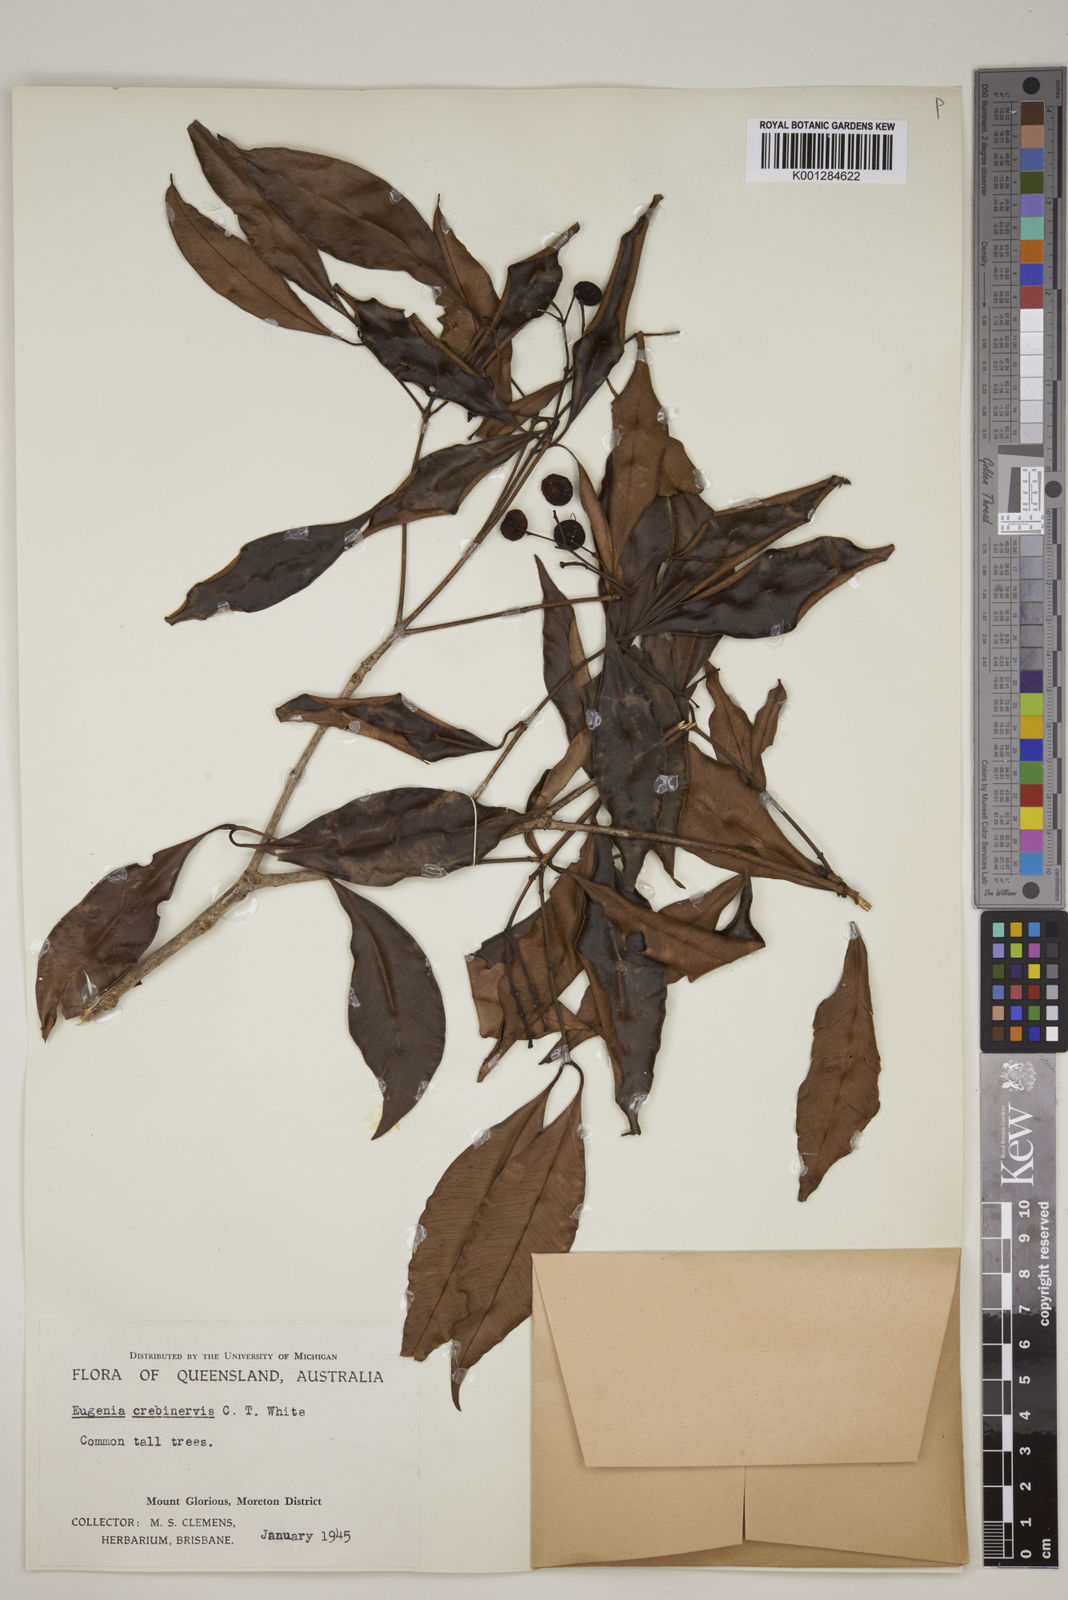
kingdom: Plantae
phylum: Tracheophyta
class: Magnoliopsida
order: Myrtales
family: Myrtaceae
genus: Syzygium
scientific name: Syzygium crebrinerve
